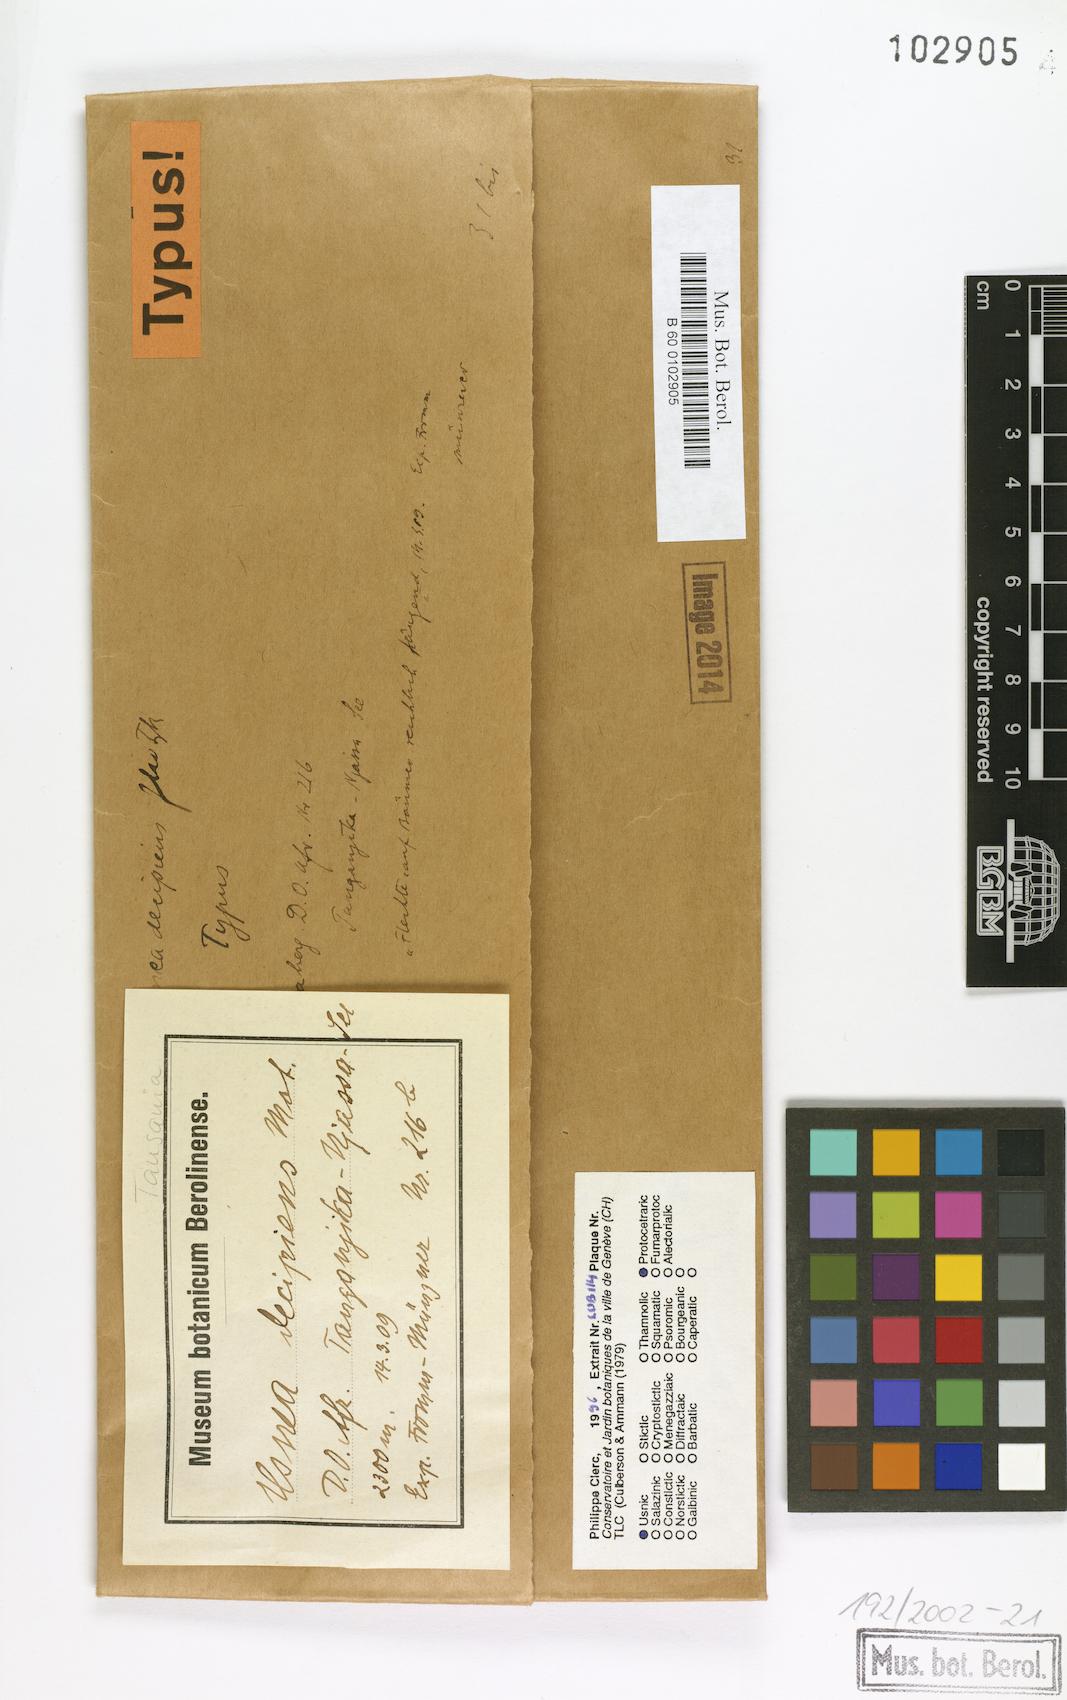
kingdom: Fungi
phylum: Ascomycota
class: Lecanoromycetes
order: Lecanorales
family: Parmeliaceae
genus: Usnea
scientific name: Usnea decipiens
